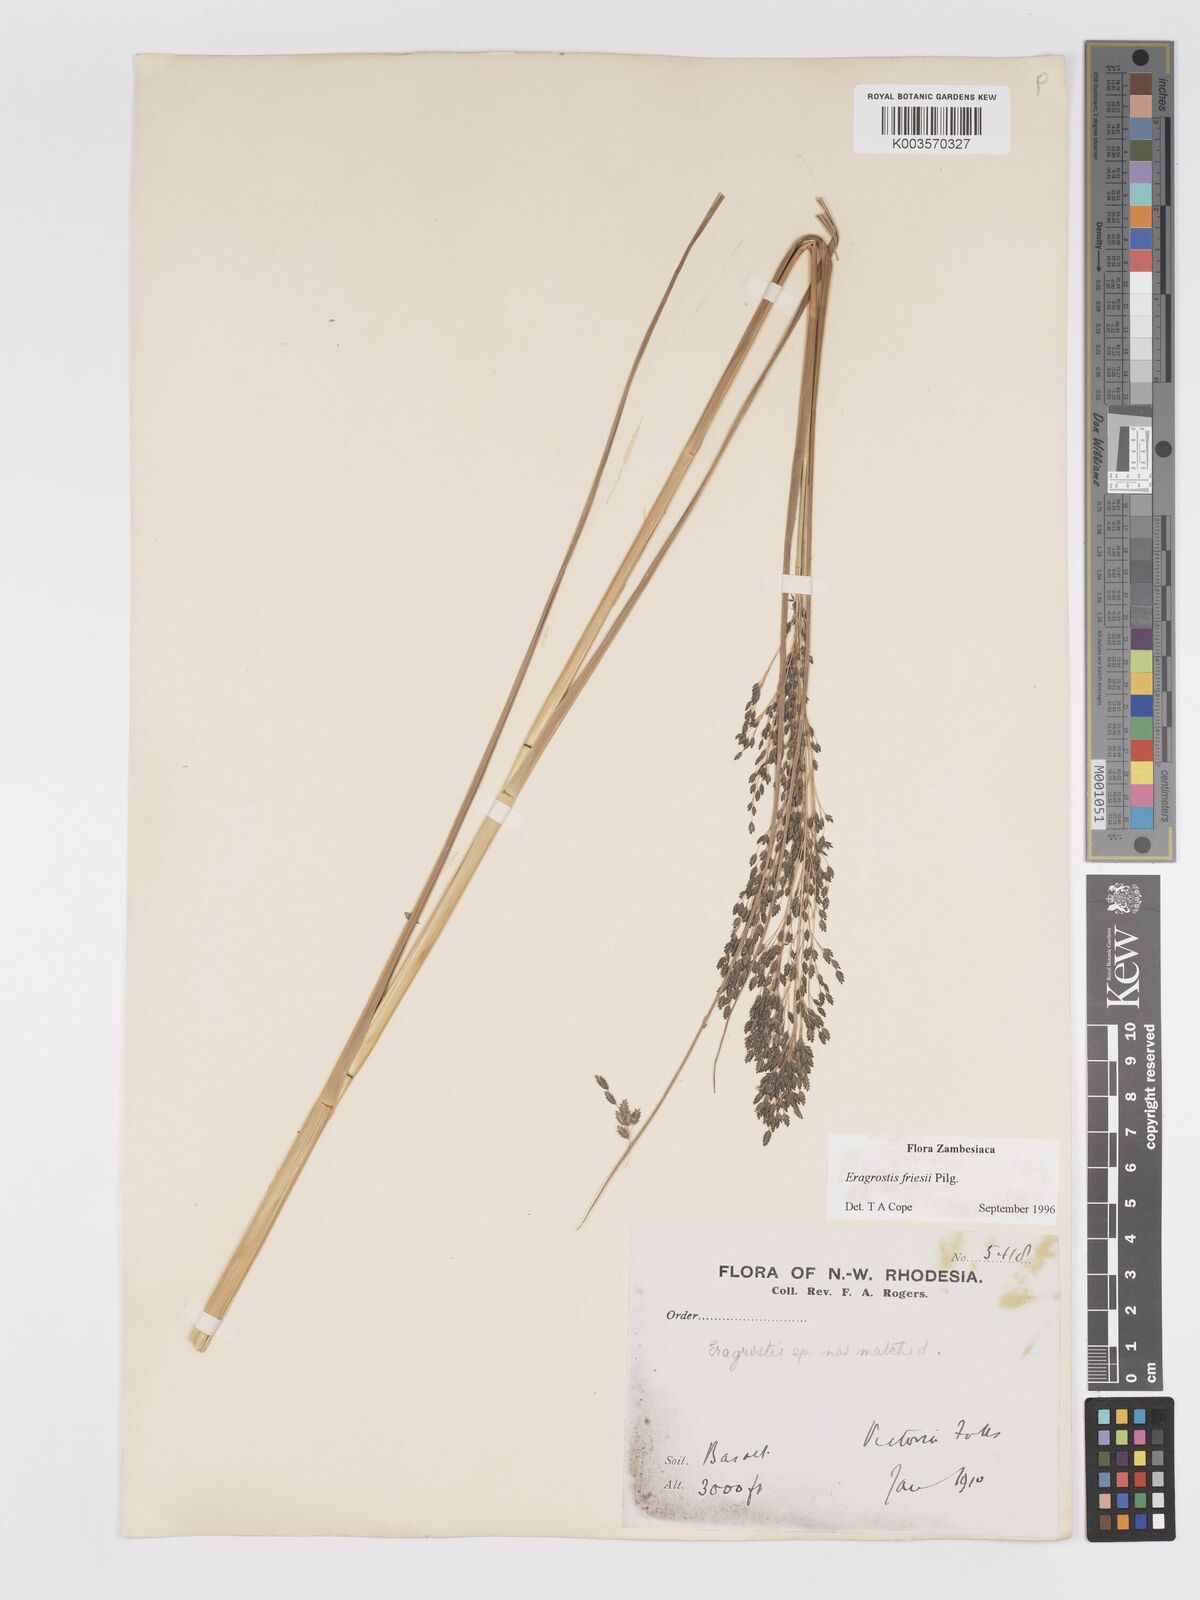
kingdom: Plantae
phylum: Tracheophyta
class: Liliopsida
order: Poales
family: Poaceae
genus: Eragrostis
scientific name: Eragrostis friesii
